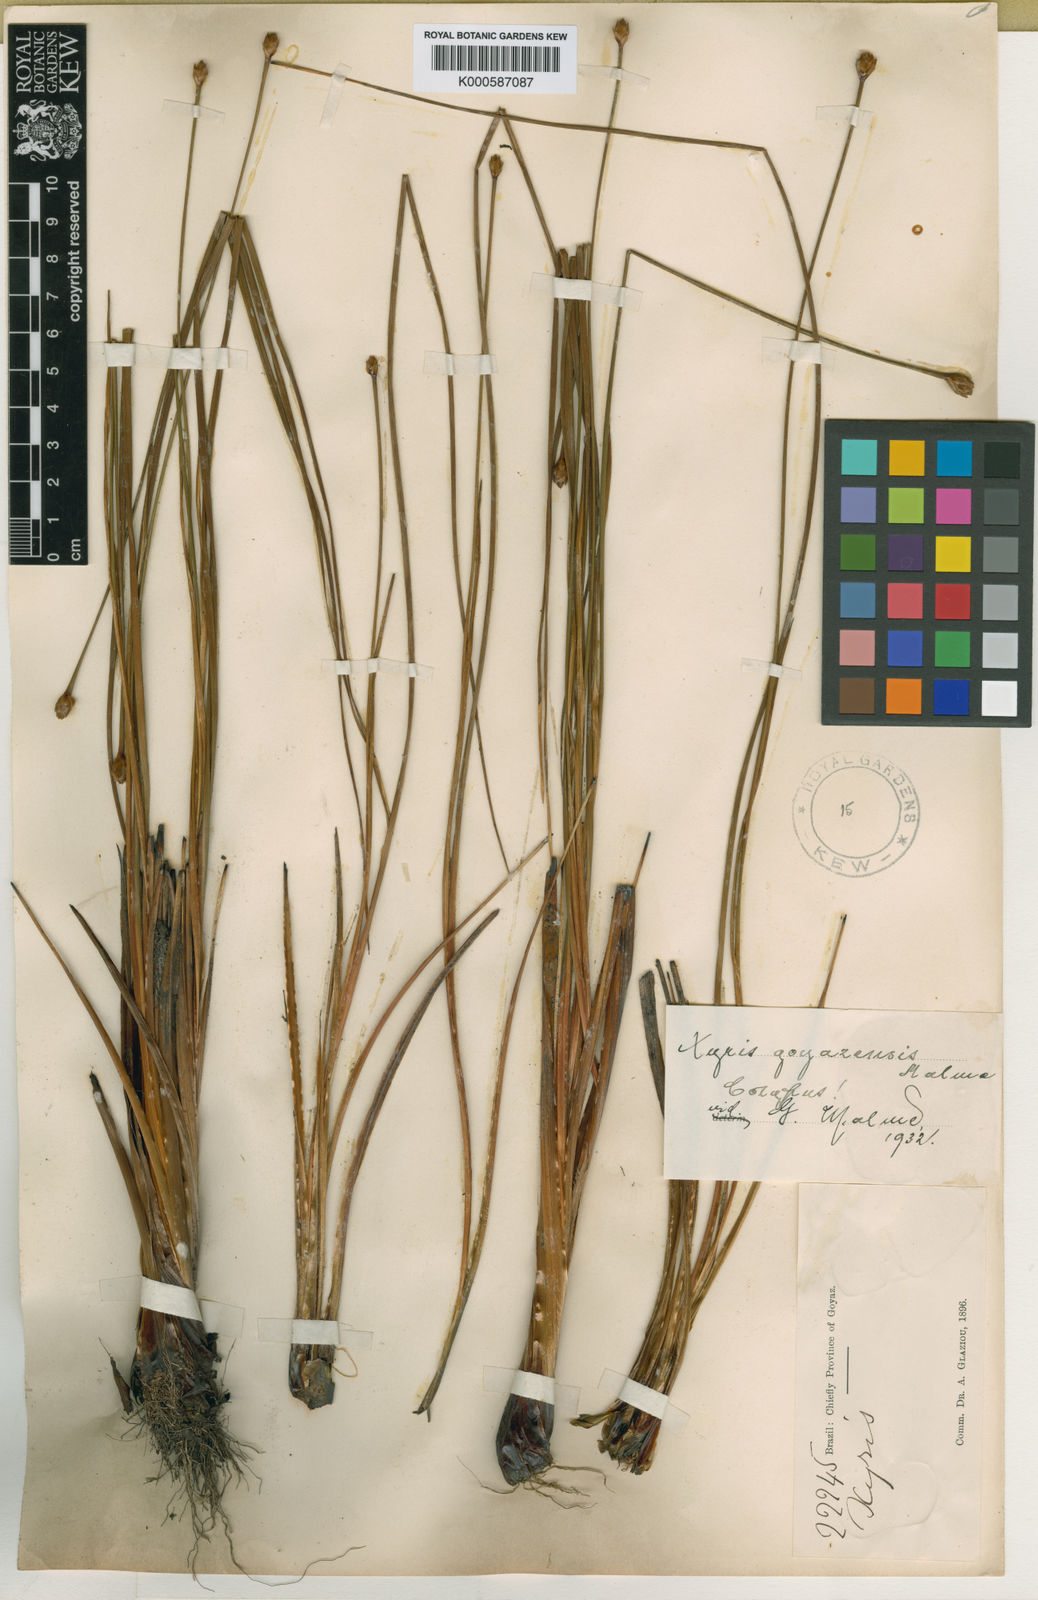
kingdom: Plantae
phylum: Tracheophyta
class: Liliopsida
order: Poales
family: Xyridaceae
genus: Xyris
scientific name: Xyris goyazensis
